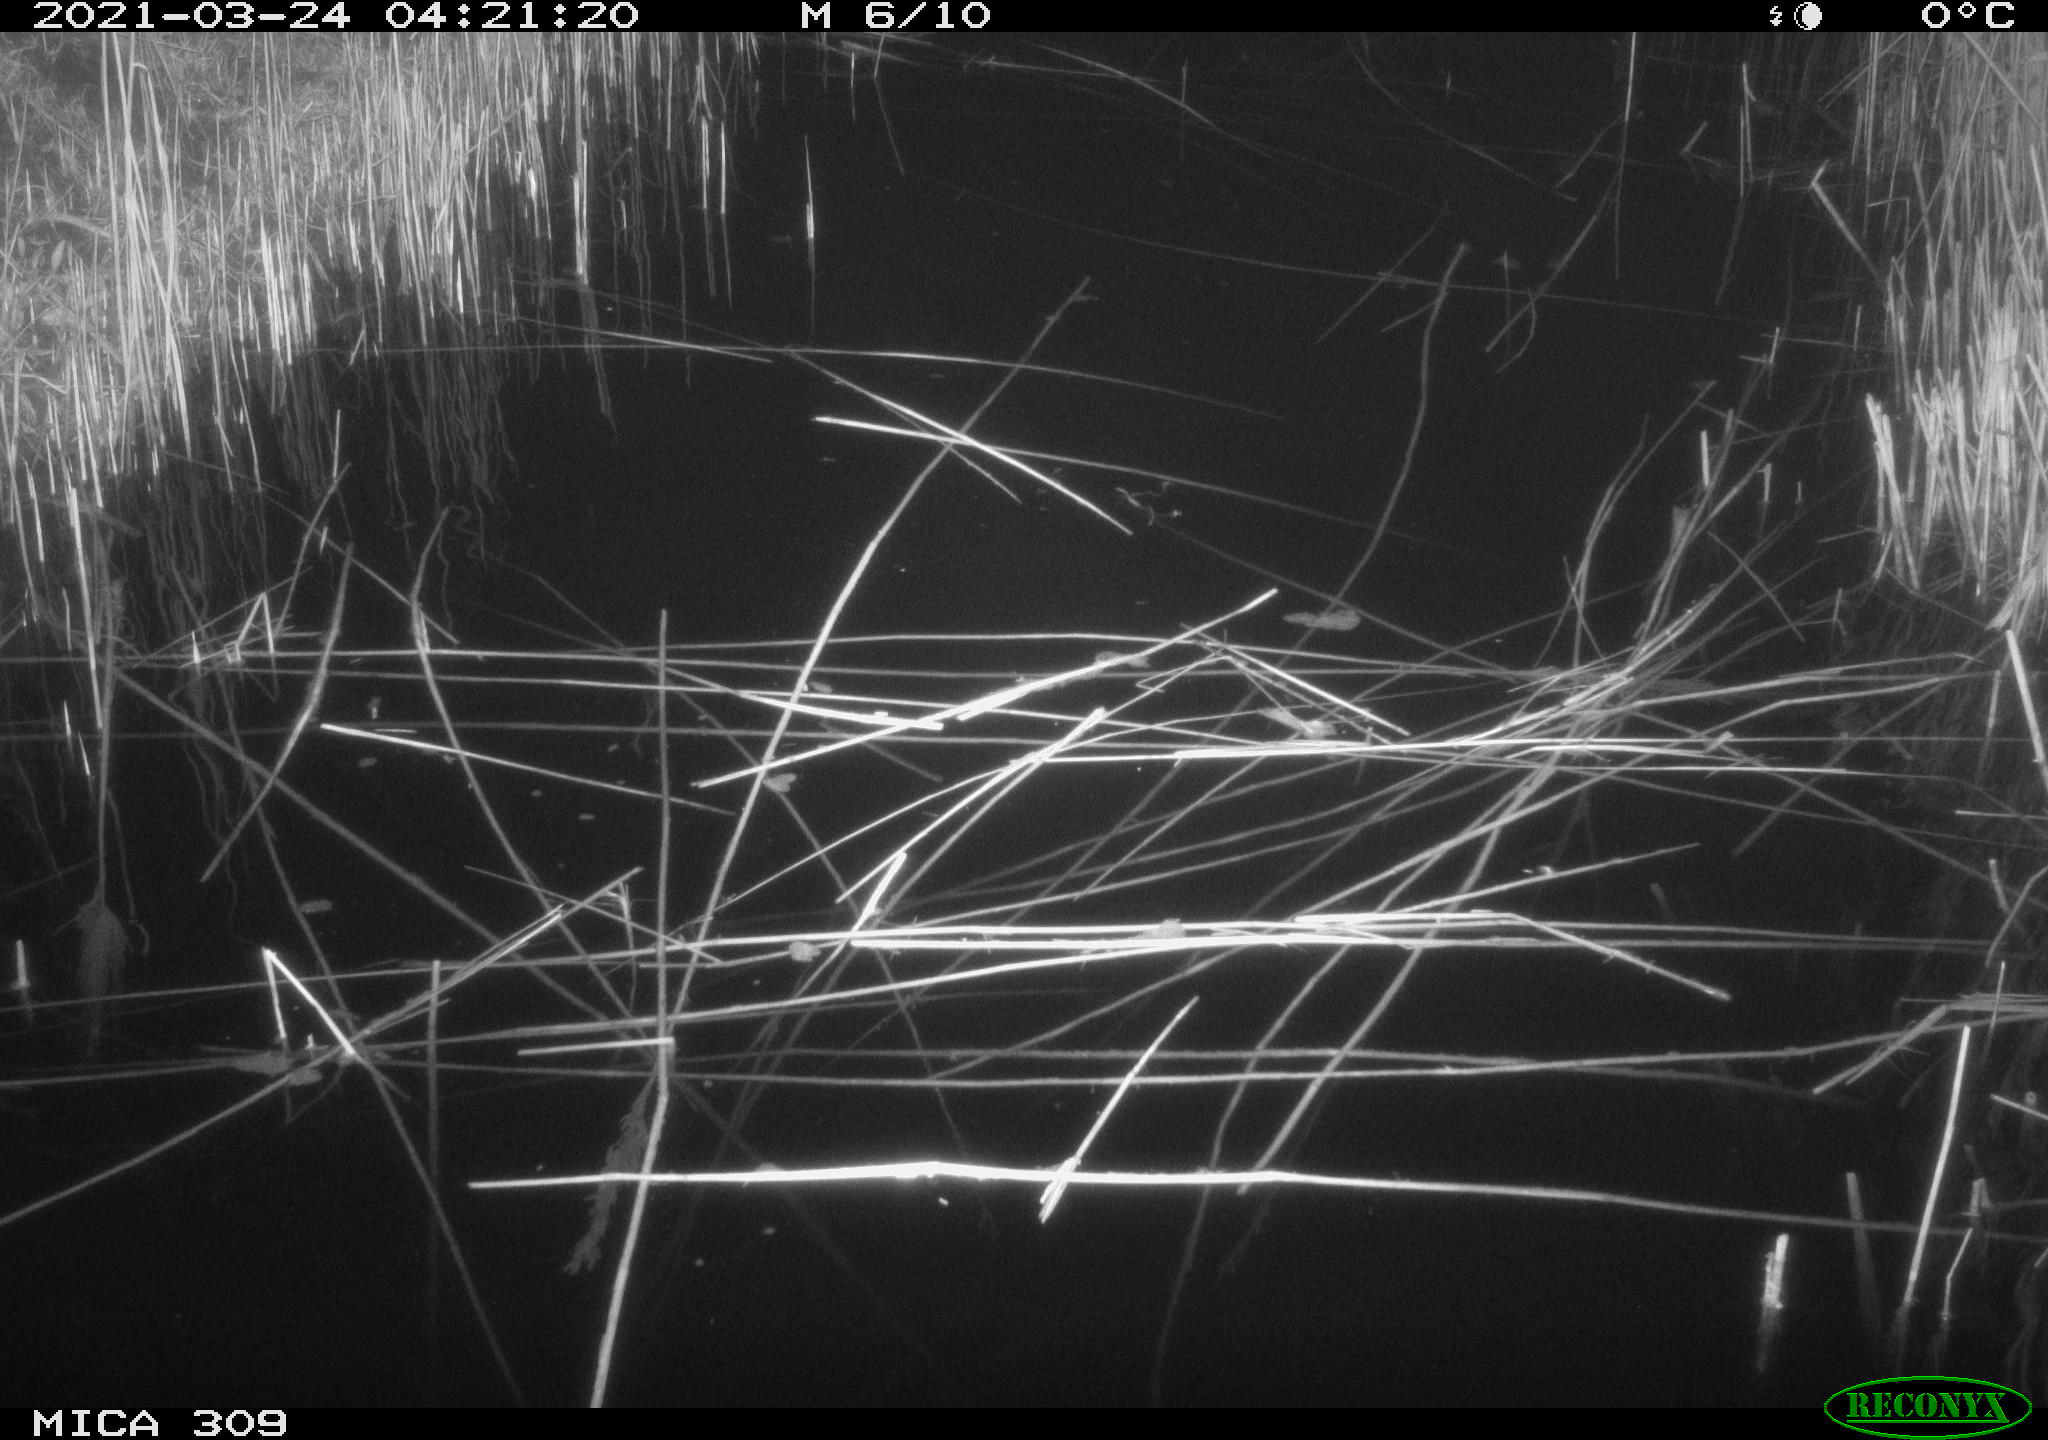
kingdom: Animalia
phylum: Chordata
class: Mammalia
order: Rodentia
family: Muridae
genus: Rattus
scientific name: Rattus norvegicus
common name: Brown rat
